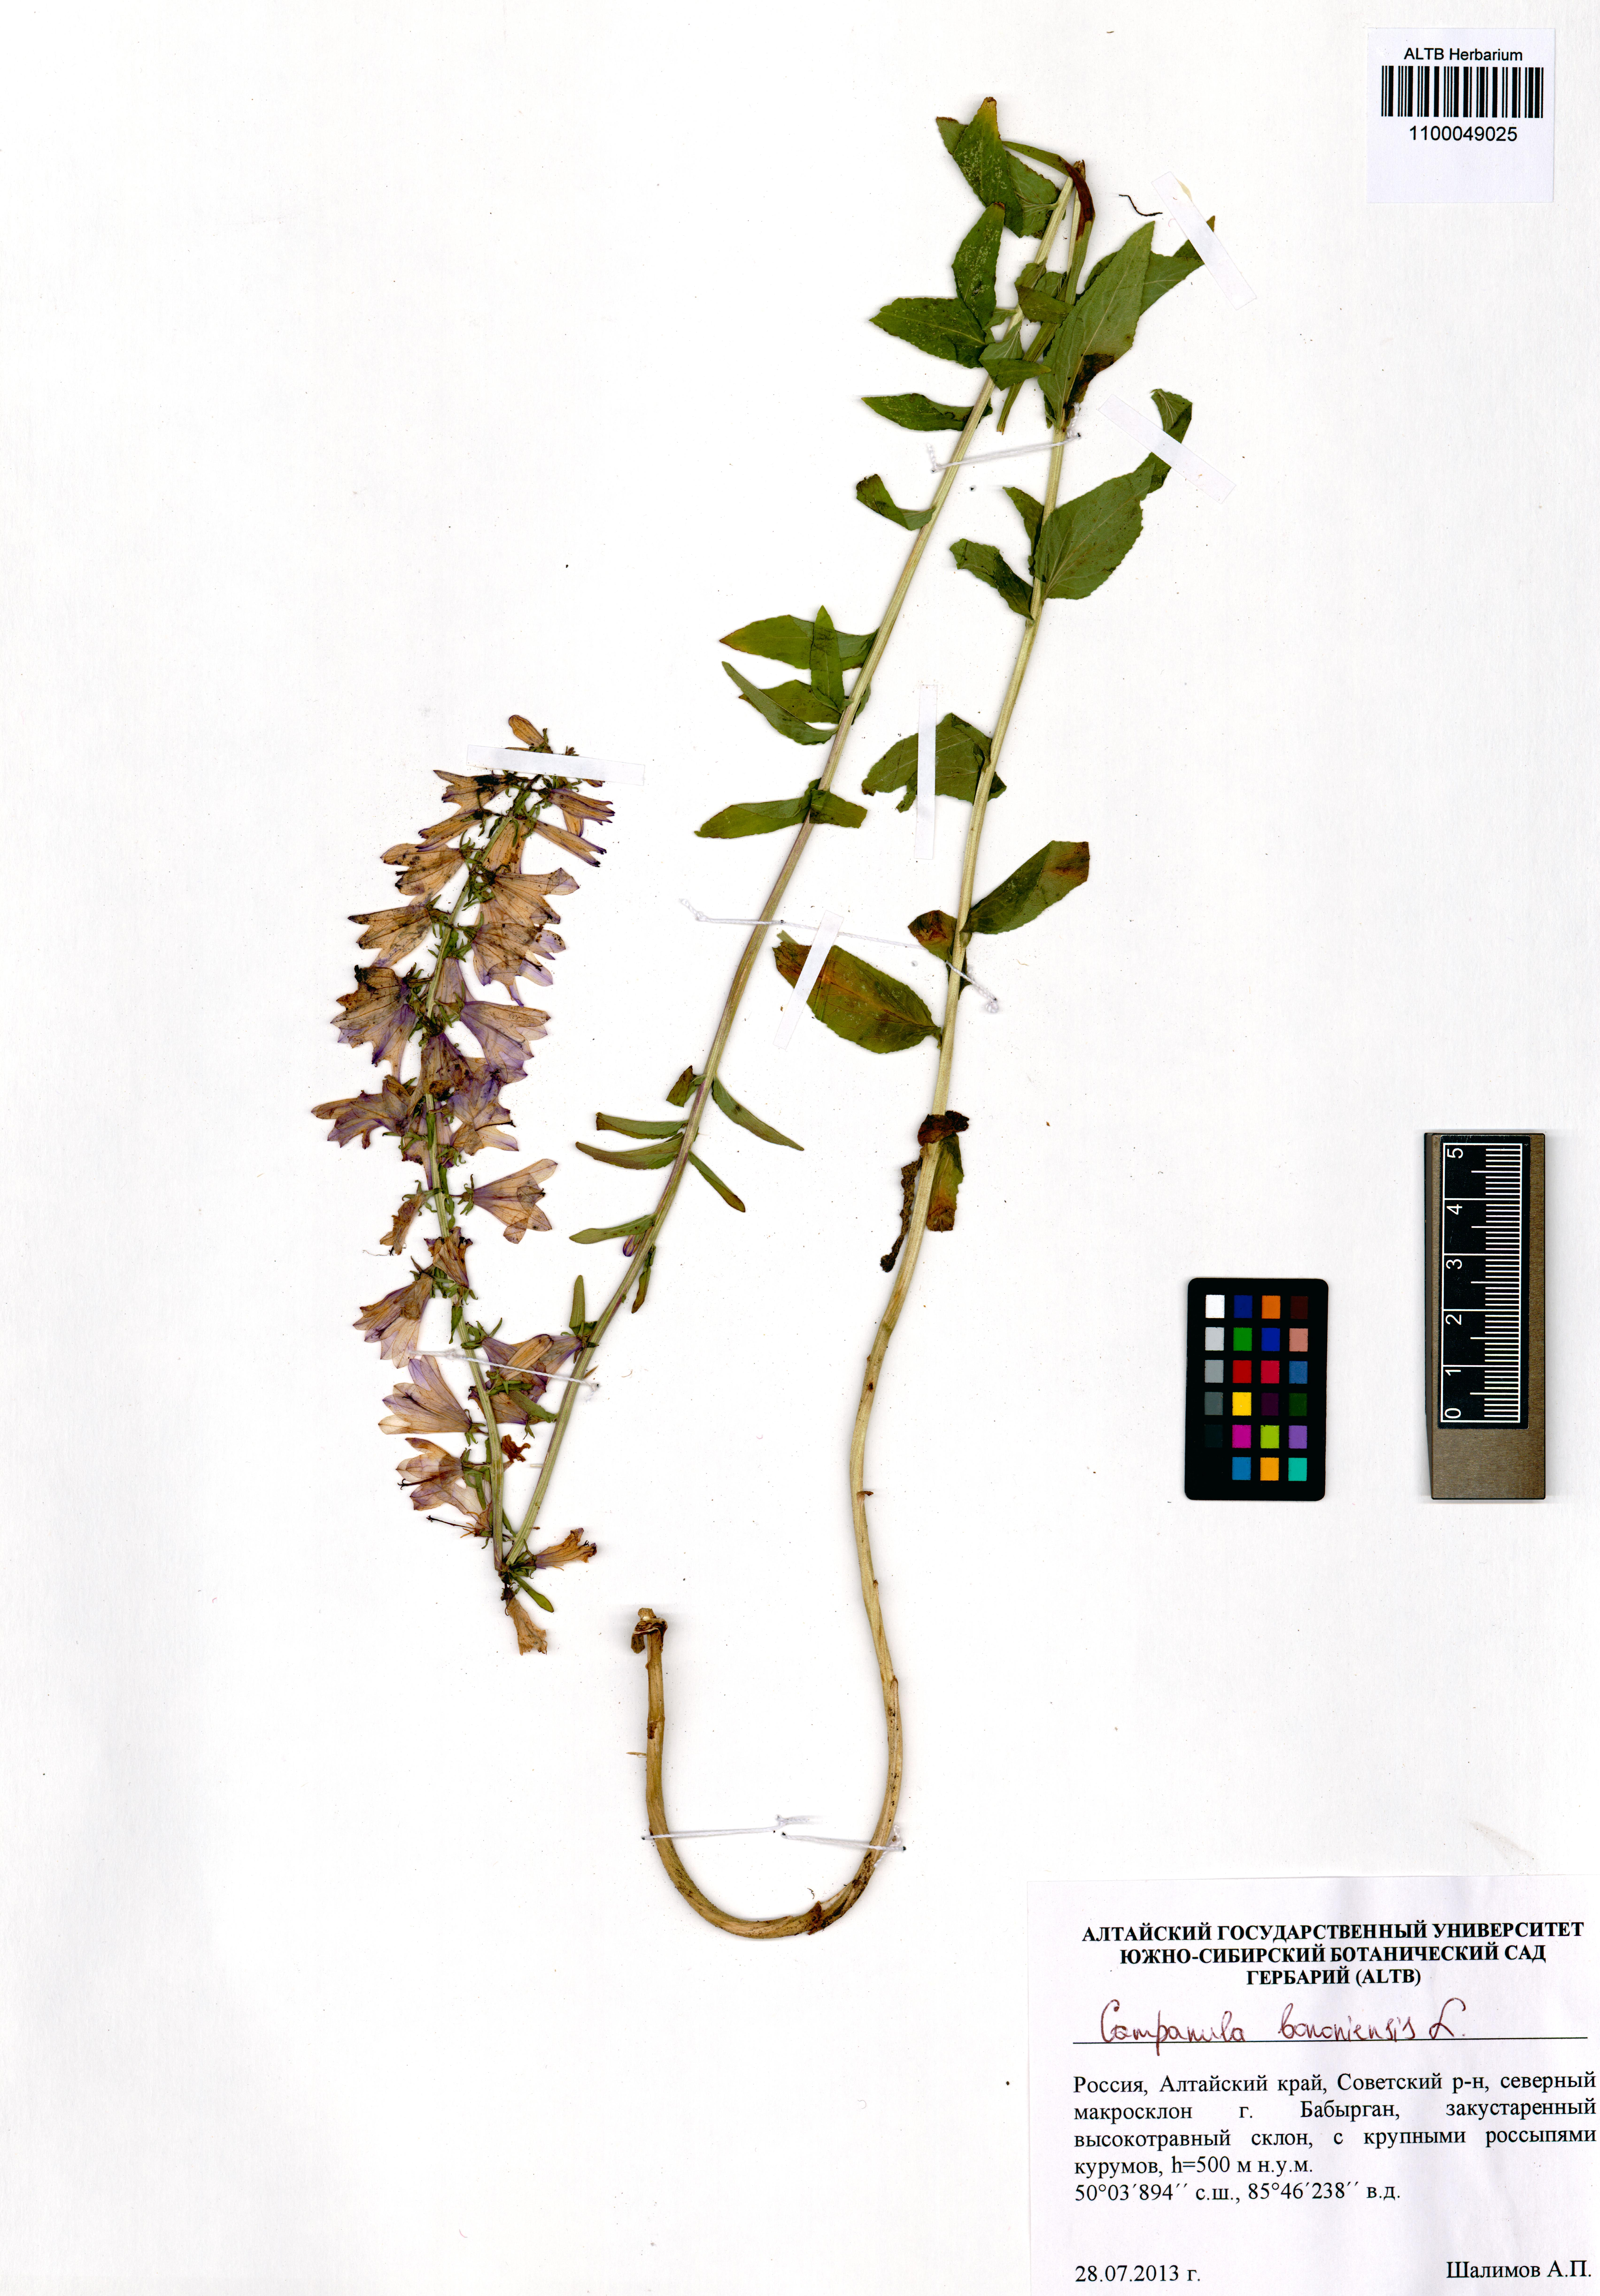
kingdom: Plantae
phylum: Tracheophyta
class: Magnoliopsida
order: Asterales
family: Campanulaceae
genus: Campanula
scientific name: Campanula bononiensis
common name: Pale bellflower
